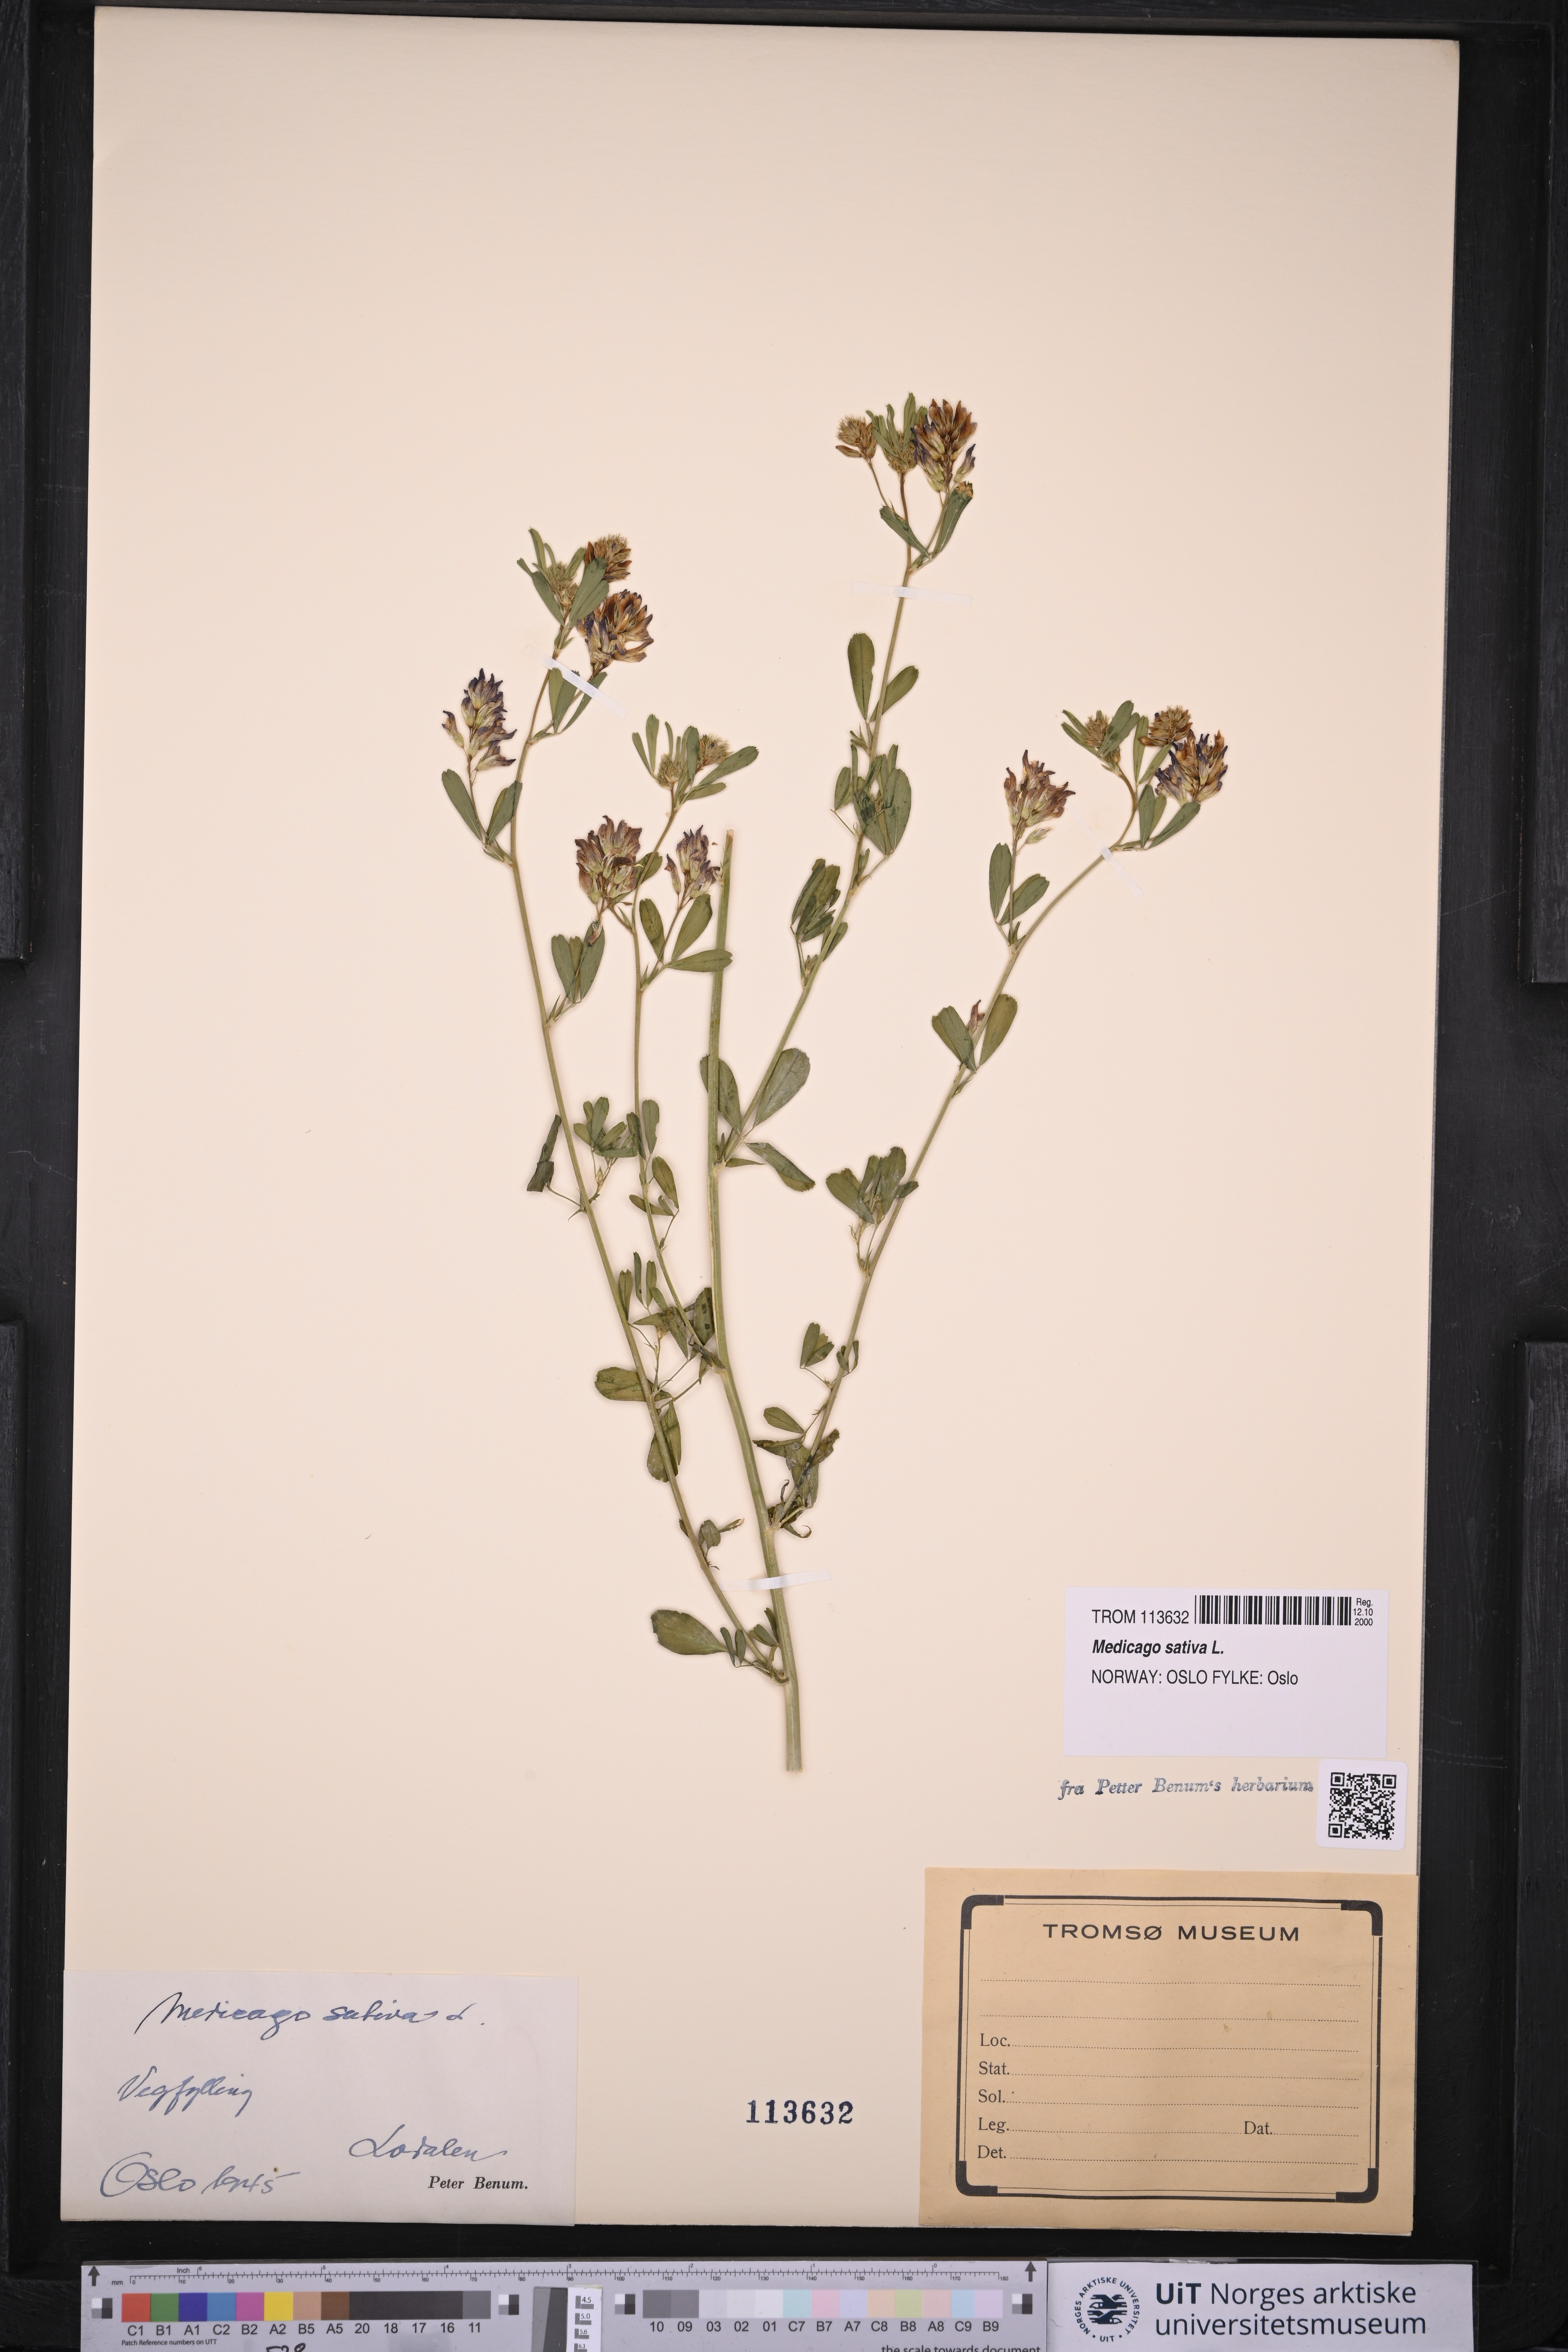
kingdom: Plantae
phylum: Tracheophyta
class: Magnoliopsida
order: Fabales
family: Fabaceae
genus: Medicago
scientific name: Medicago sativa
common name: Alfalfa
